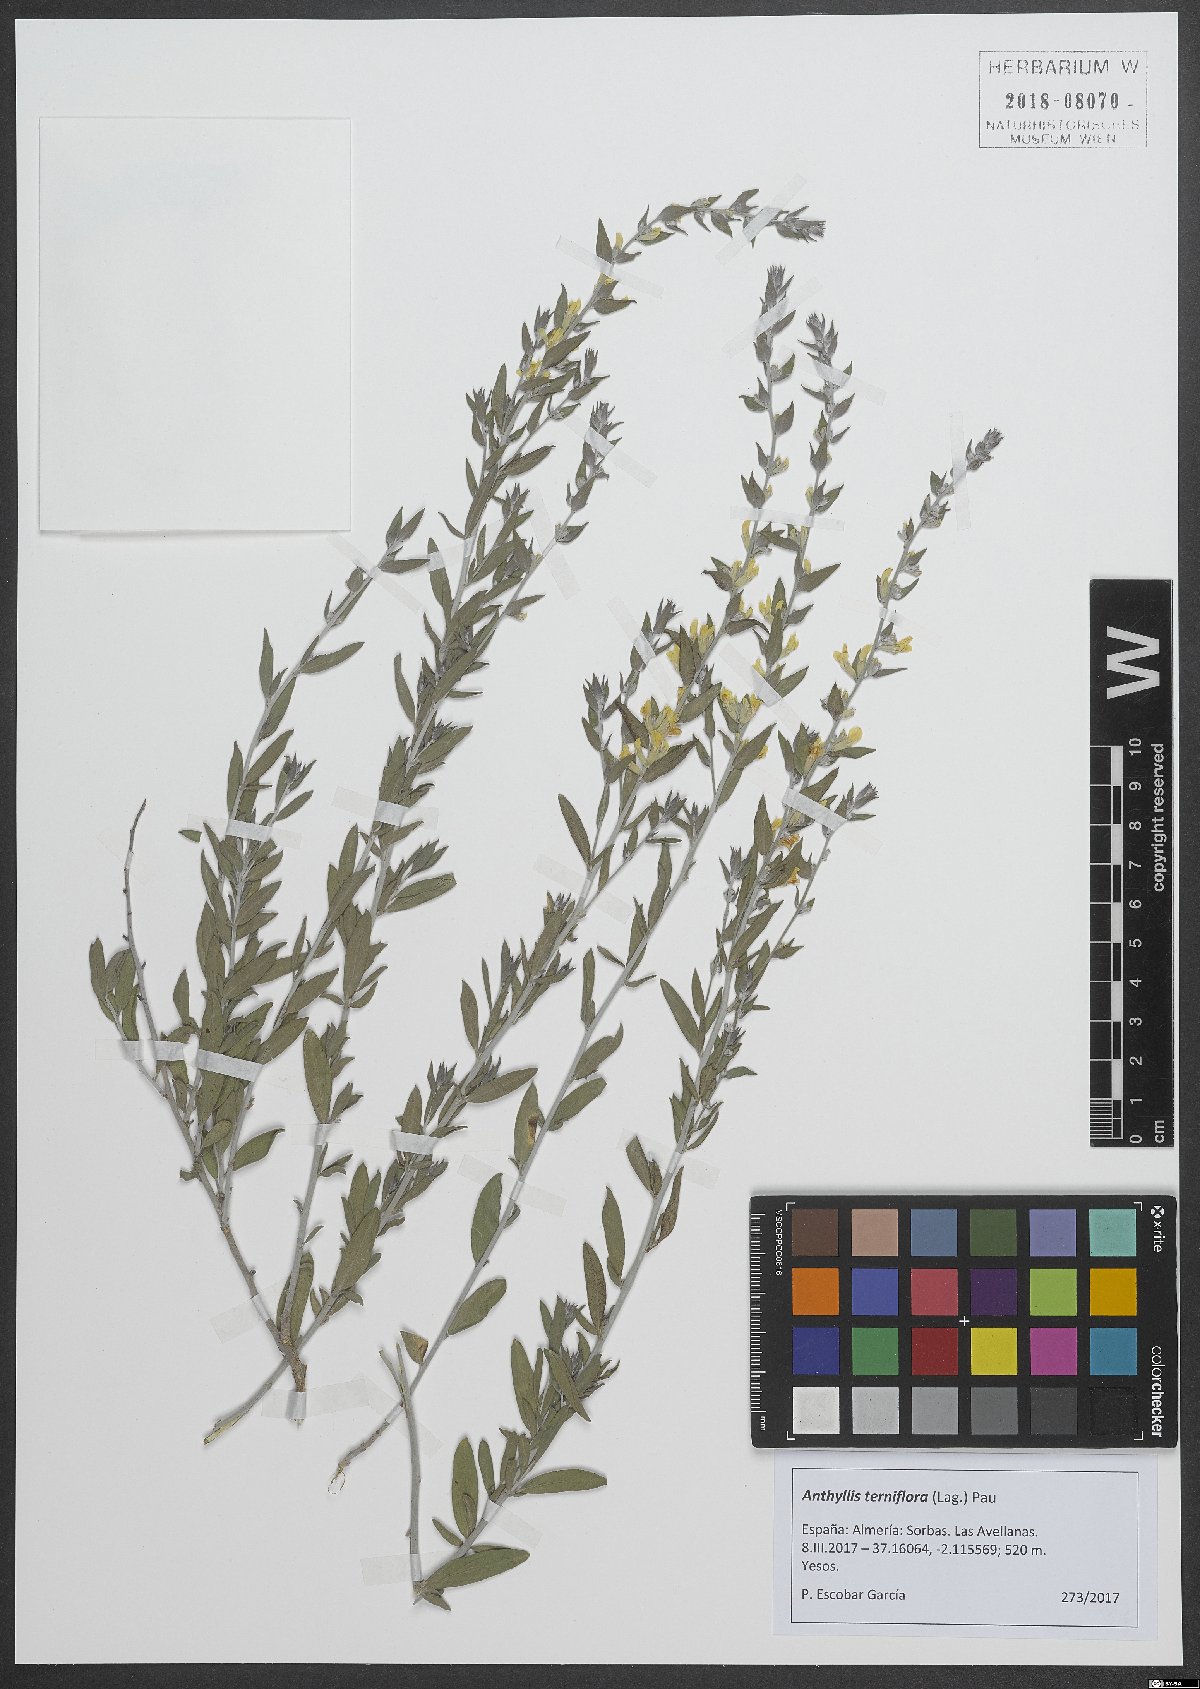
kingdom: Plantae
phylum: Tracheophyta
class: Magnoliopsida
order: Fabales
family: Fabaceae
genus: Anthyllis
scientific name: Anthyllis terniflora
